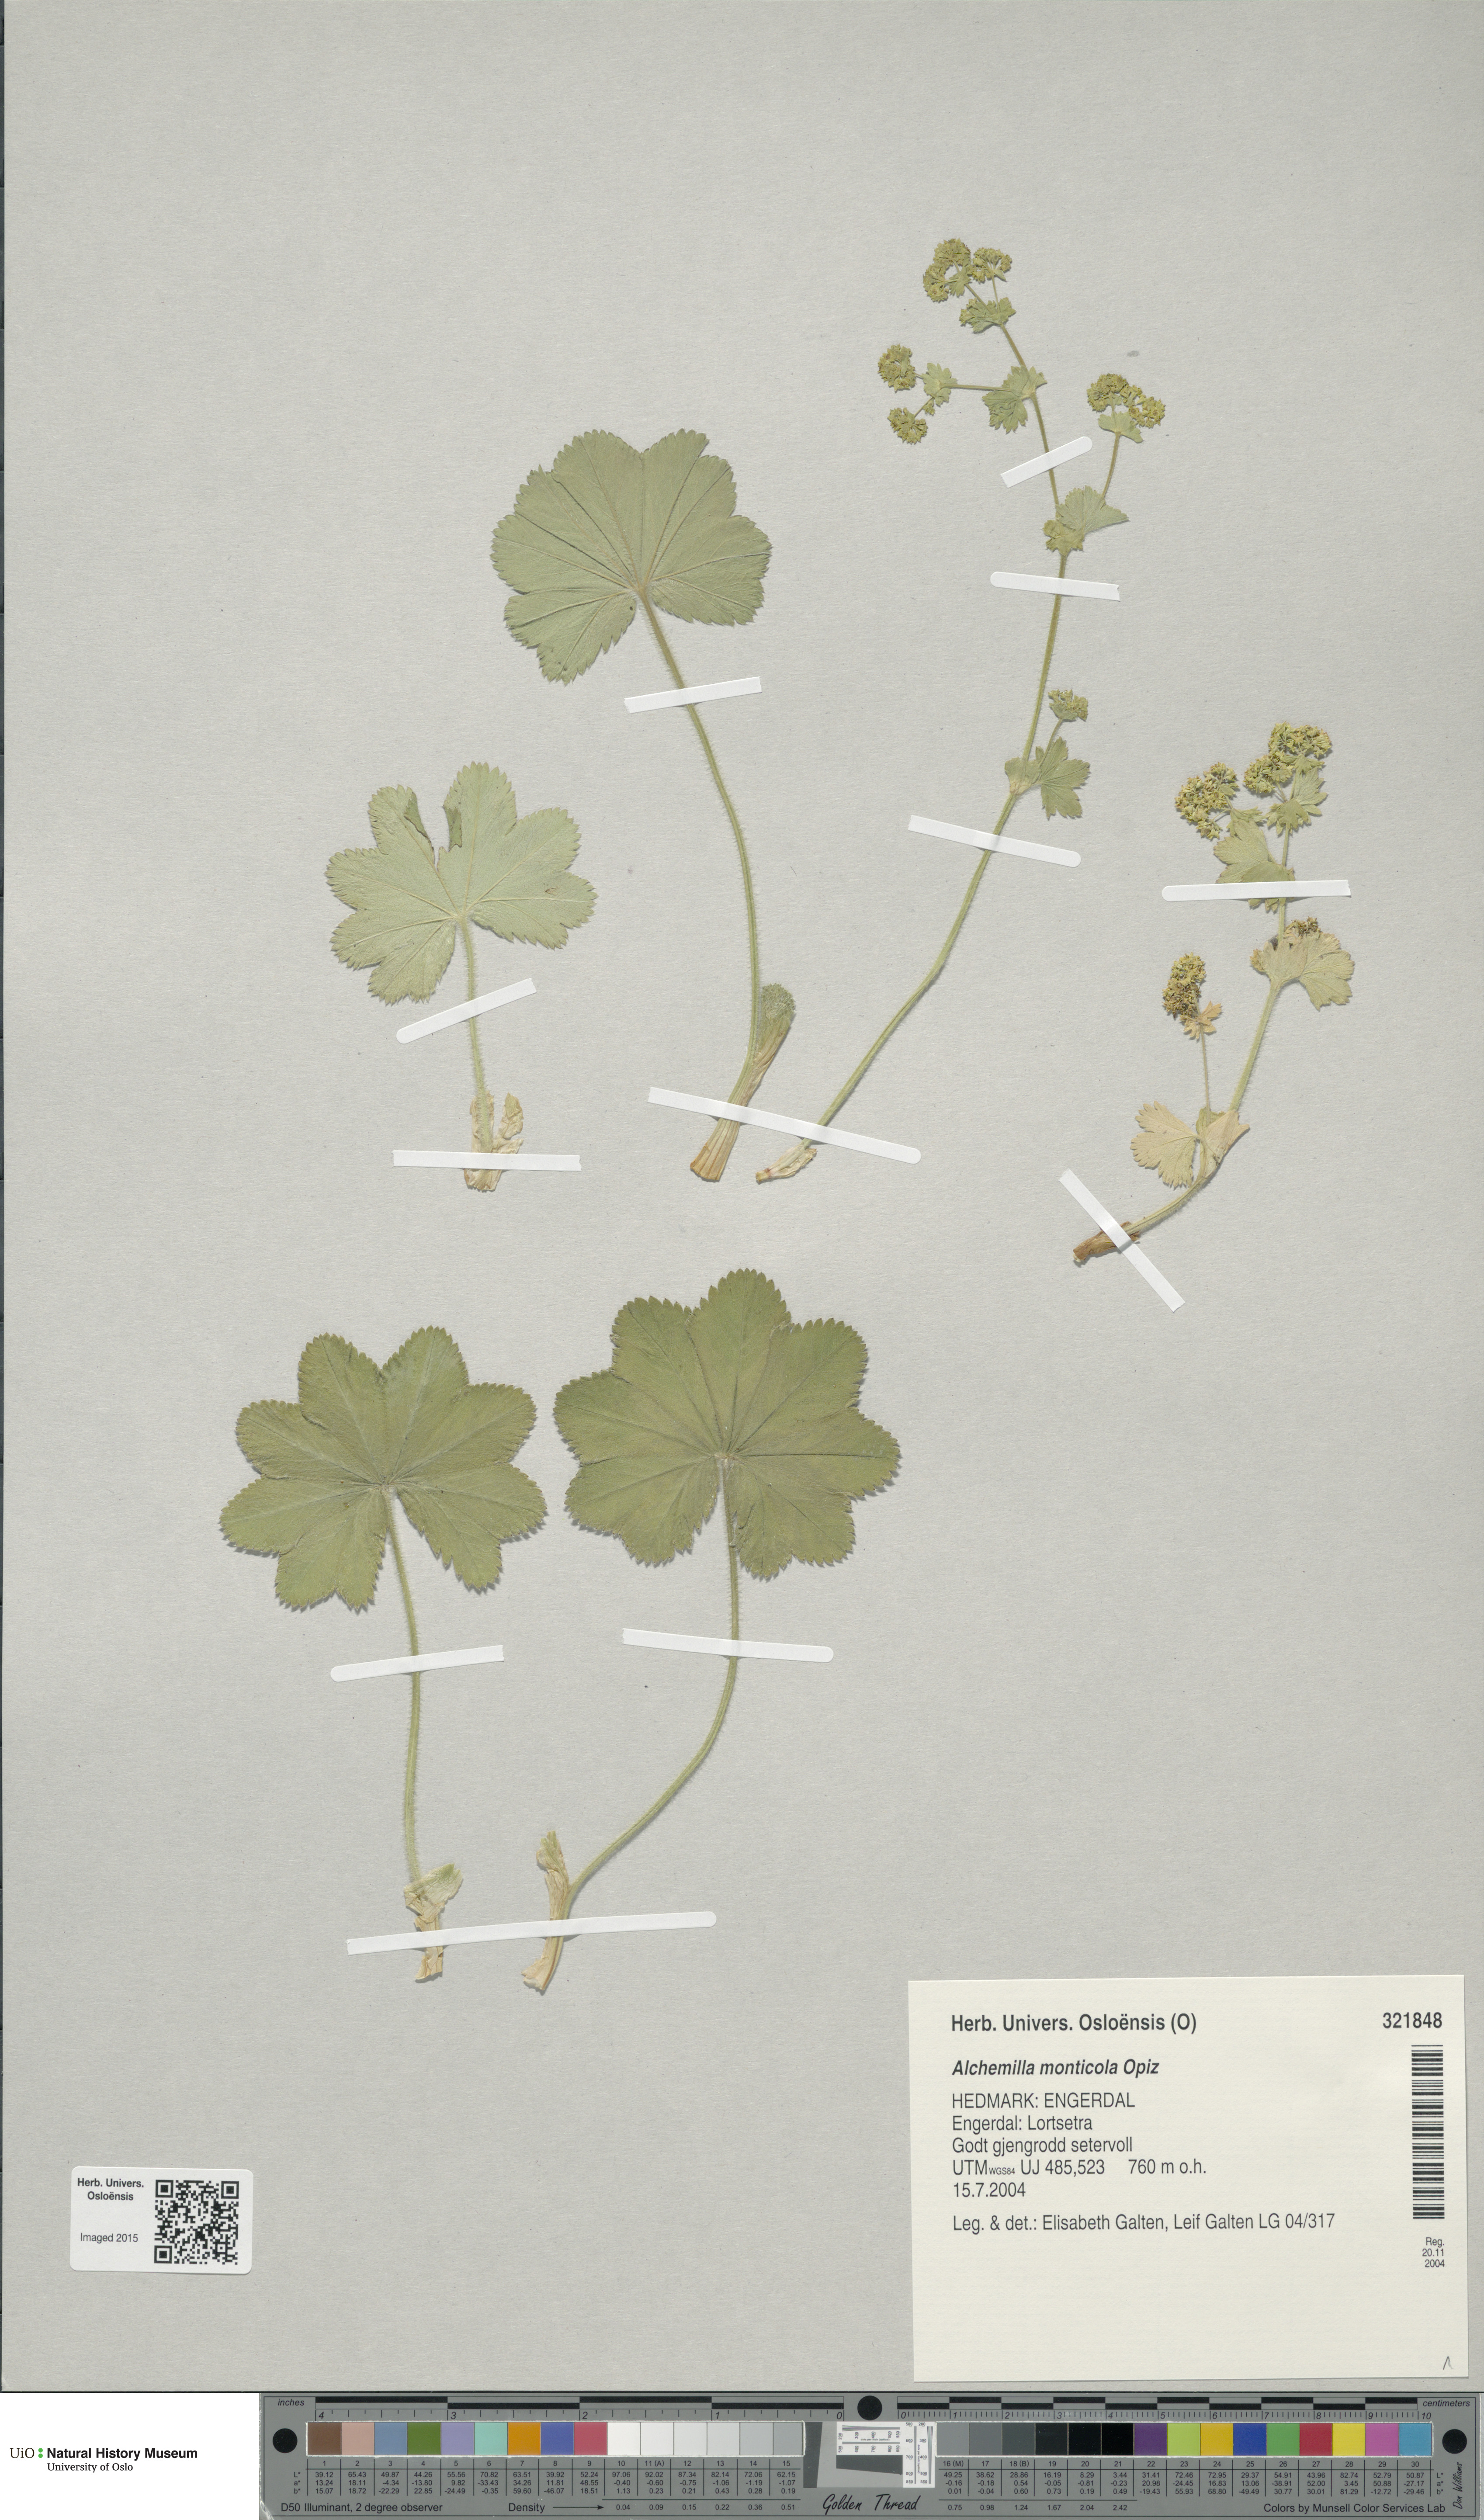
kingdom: Plantae
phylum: Tracheophyta
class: Magnoliopsida
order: Rosales
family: Rosaceae
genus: Alchemilla
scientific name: Alchemilla monticola
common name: Hairy lady's mantle
